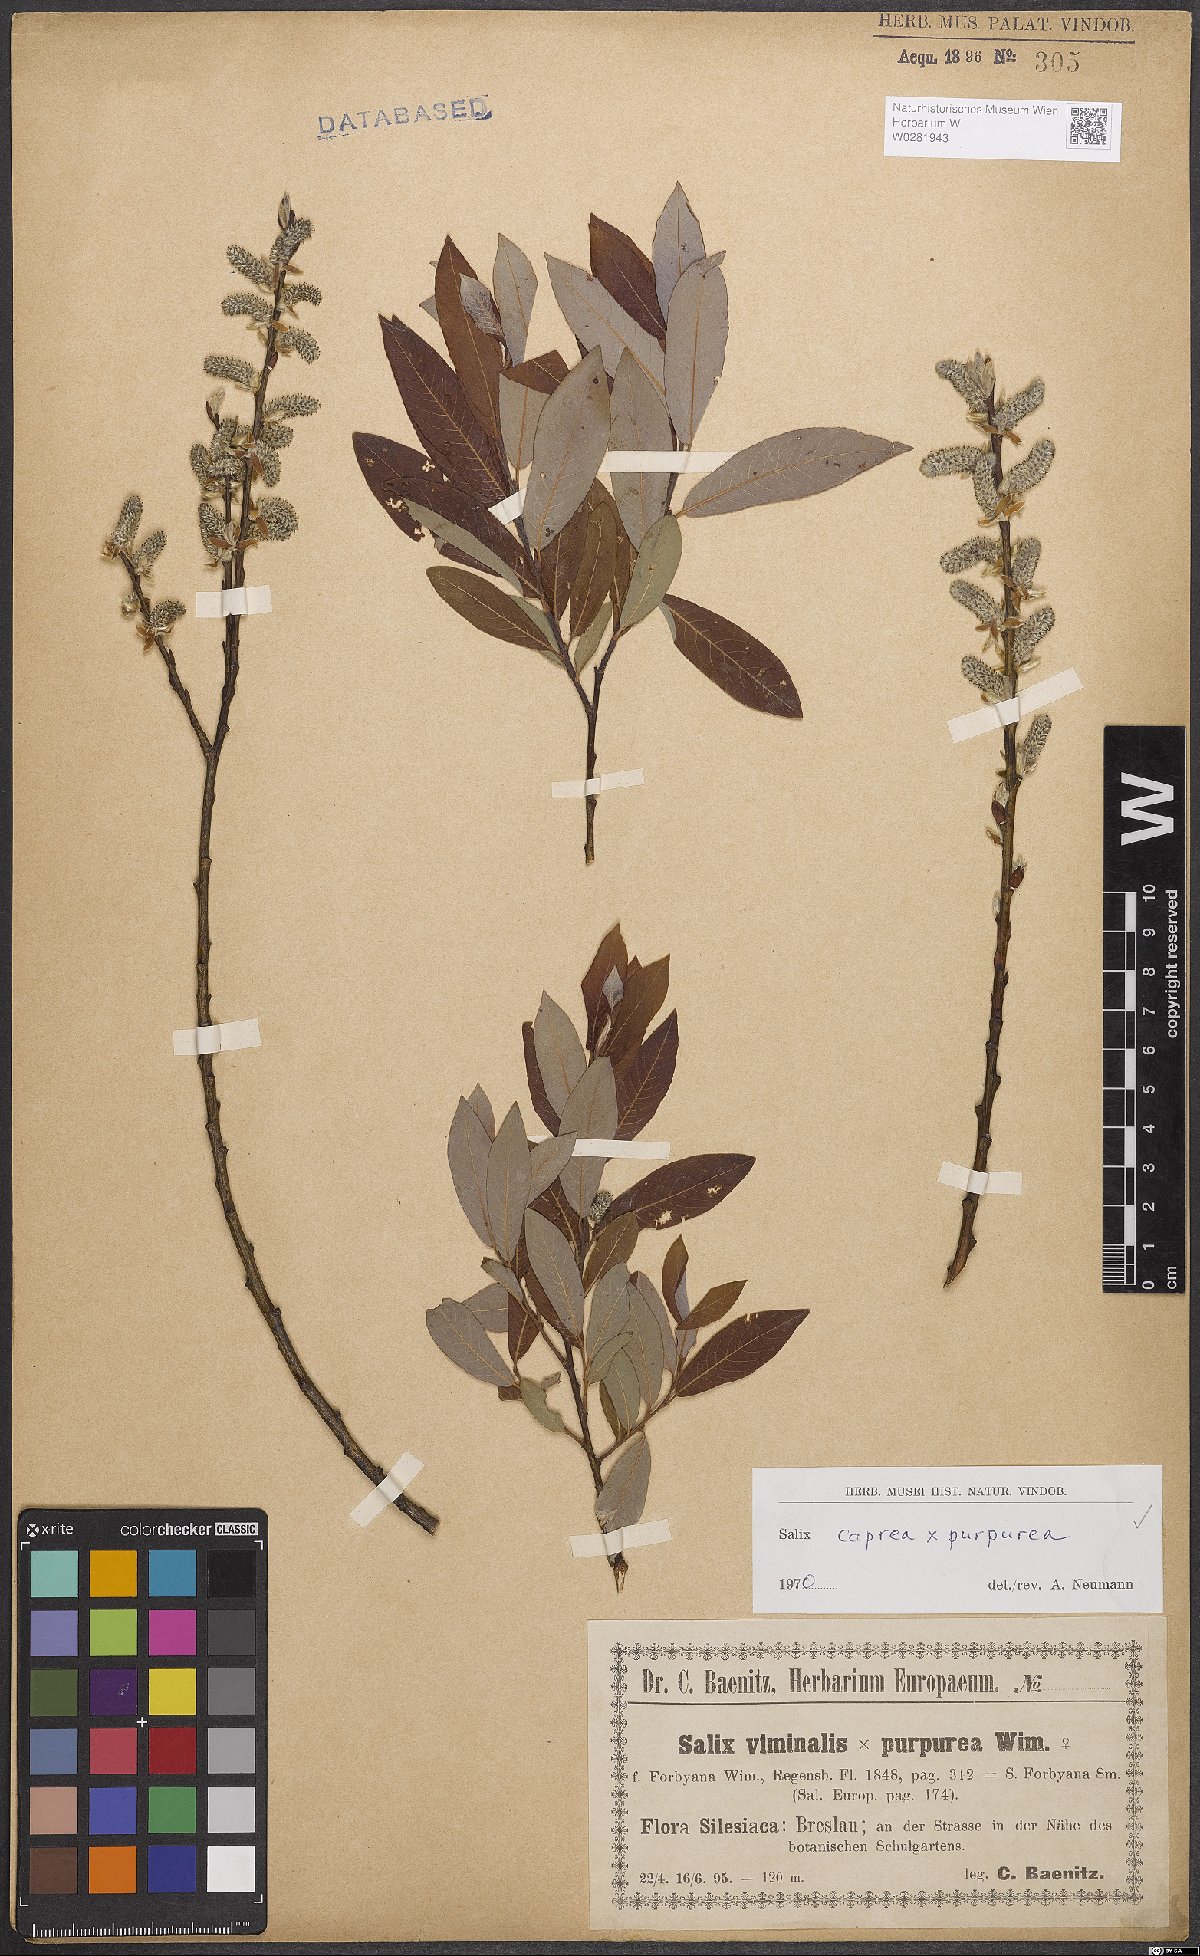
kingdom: Plantae
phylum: Tracheophyta
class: Magnoliopsida
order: Malpighiales
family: Salicaceae
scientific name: Salicaceae
